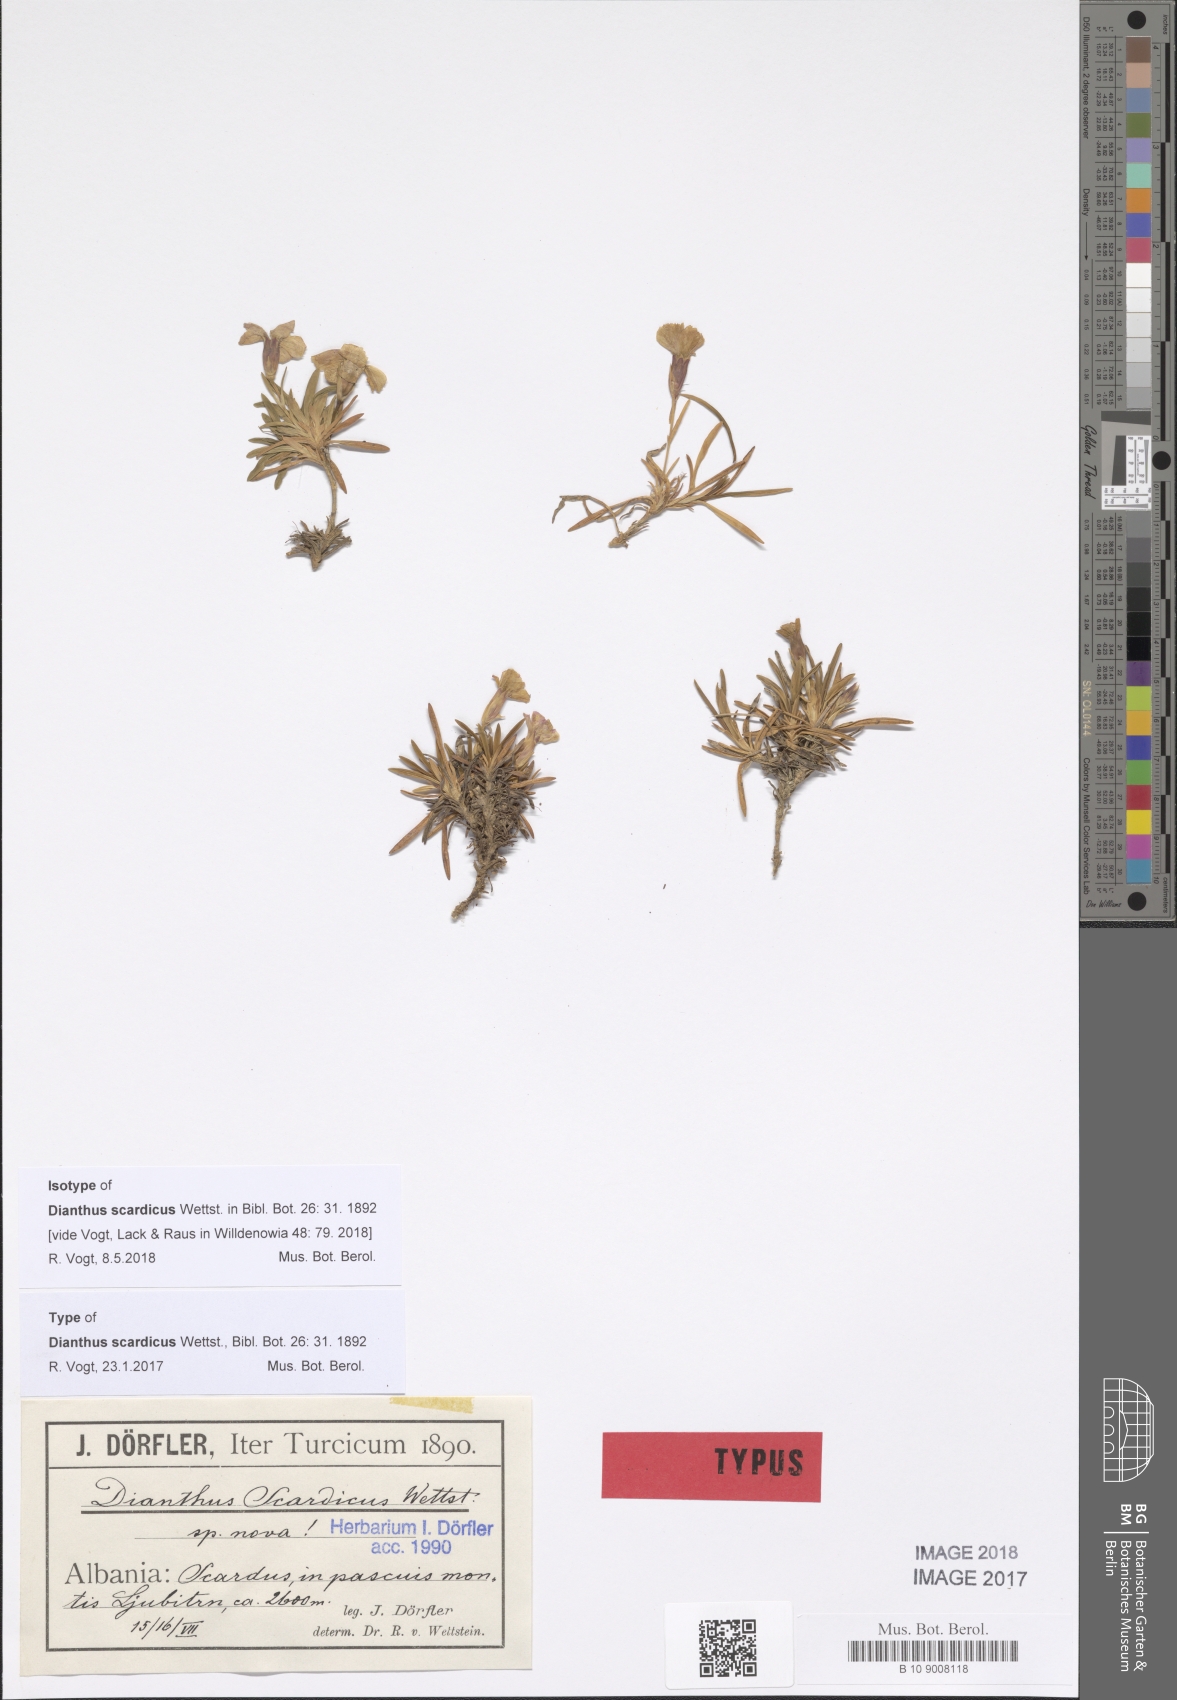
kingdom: Plantae
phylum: Tracheophyta
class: Magnoliopsida
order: Caryophyllales
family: Caryophyllaceae
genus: Dianthus
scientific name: Dianthus scardicus
